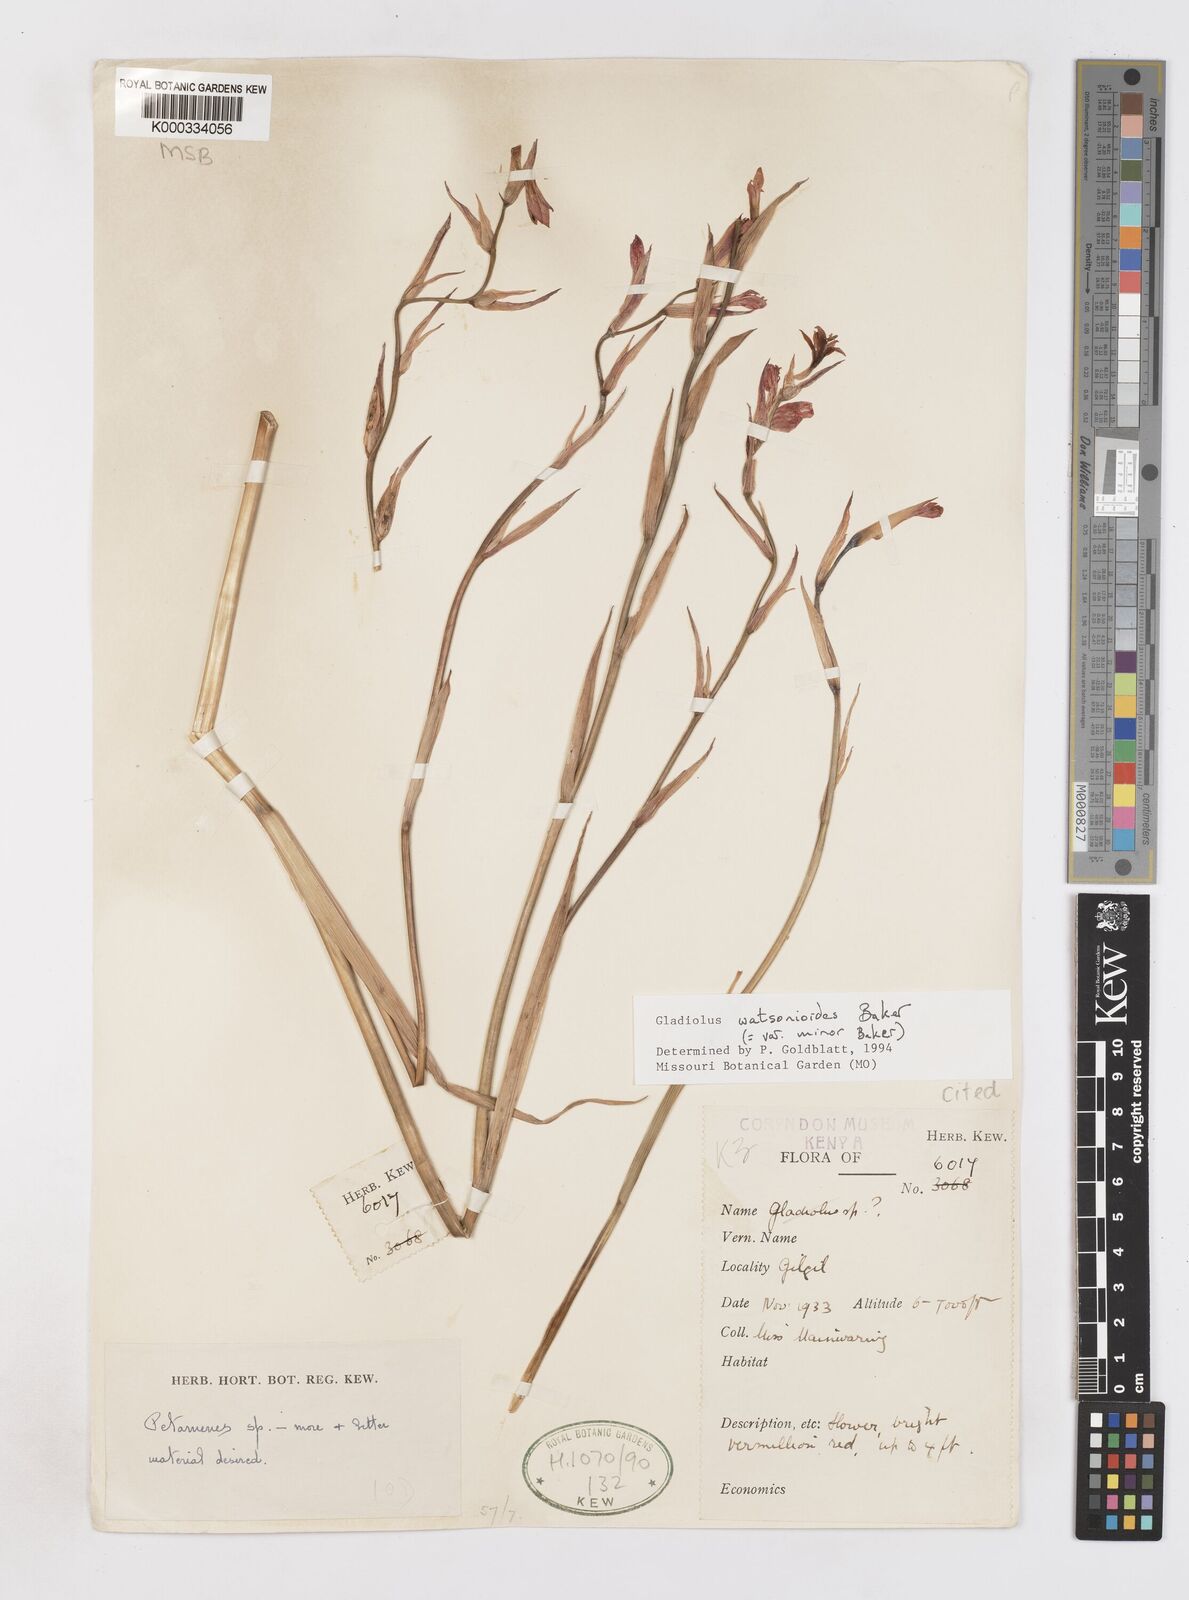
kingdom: Plantae
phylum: Tracheophyta
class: Liliopsida
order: Asparagales
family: Iridaceae
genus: Gladiolus
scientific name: Gladiolus watsonioides
